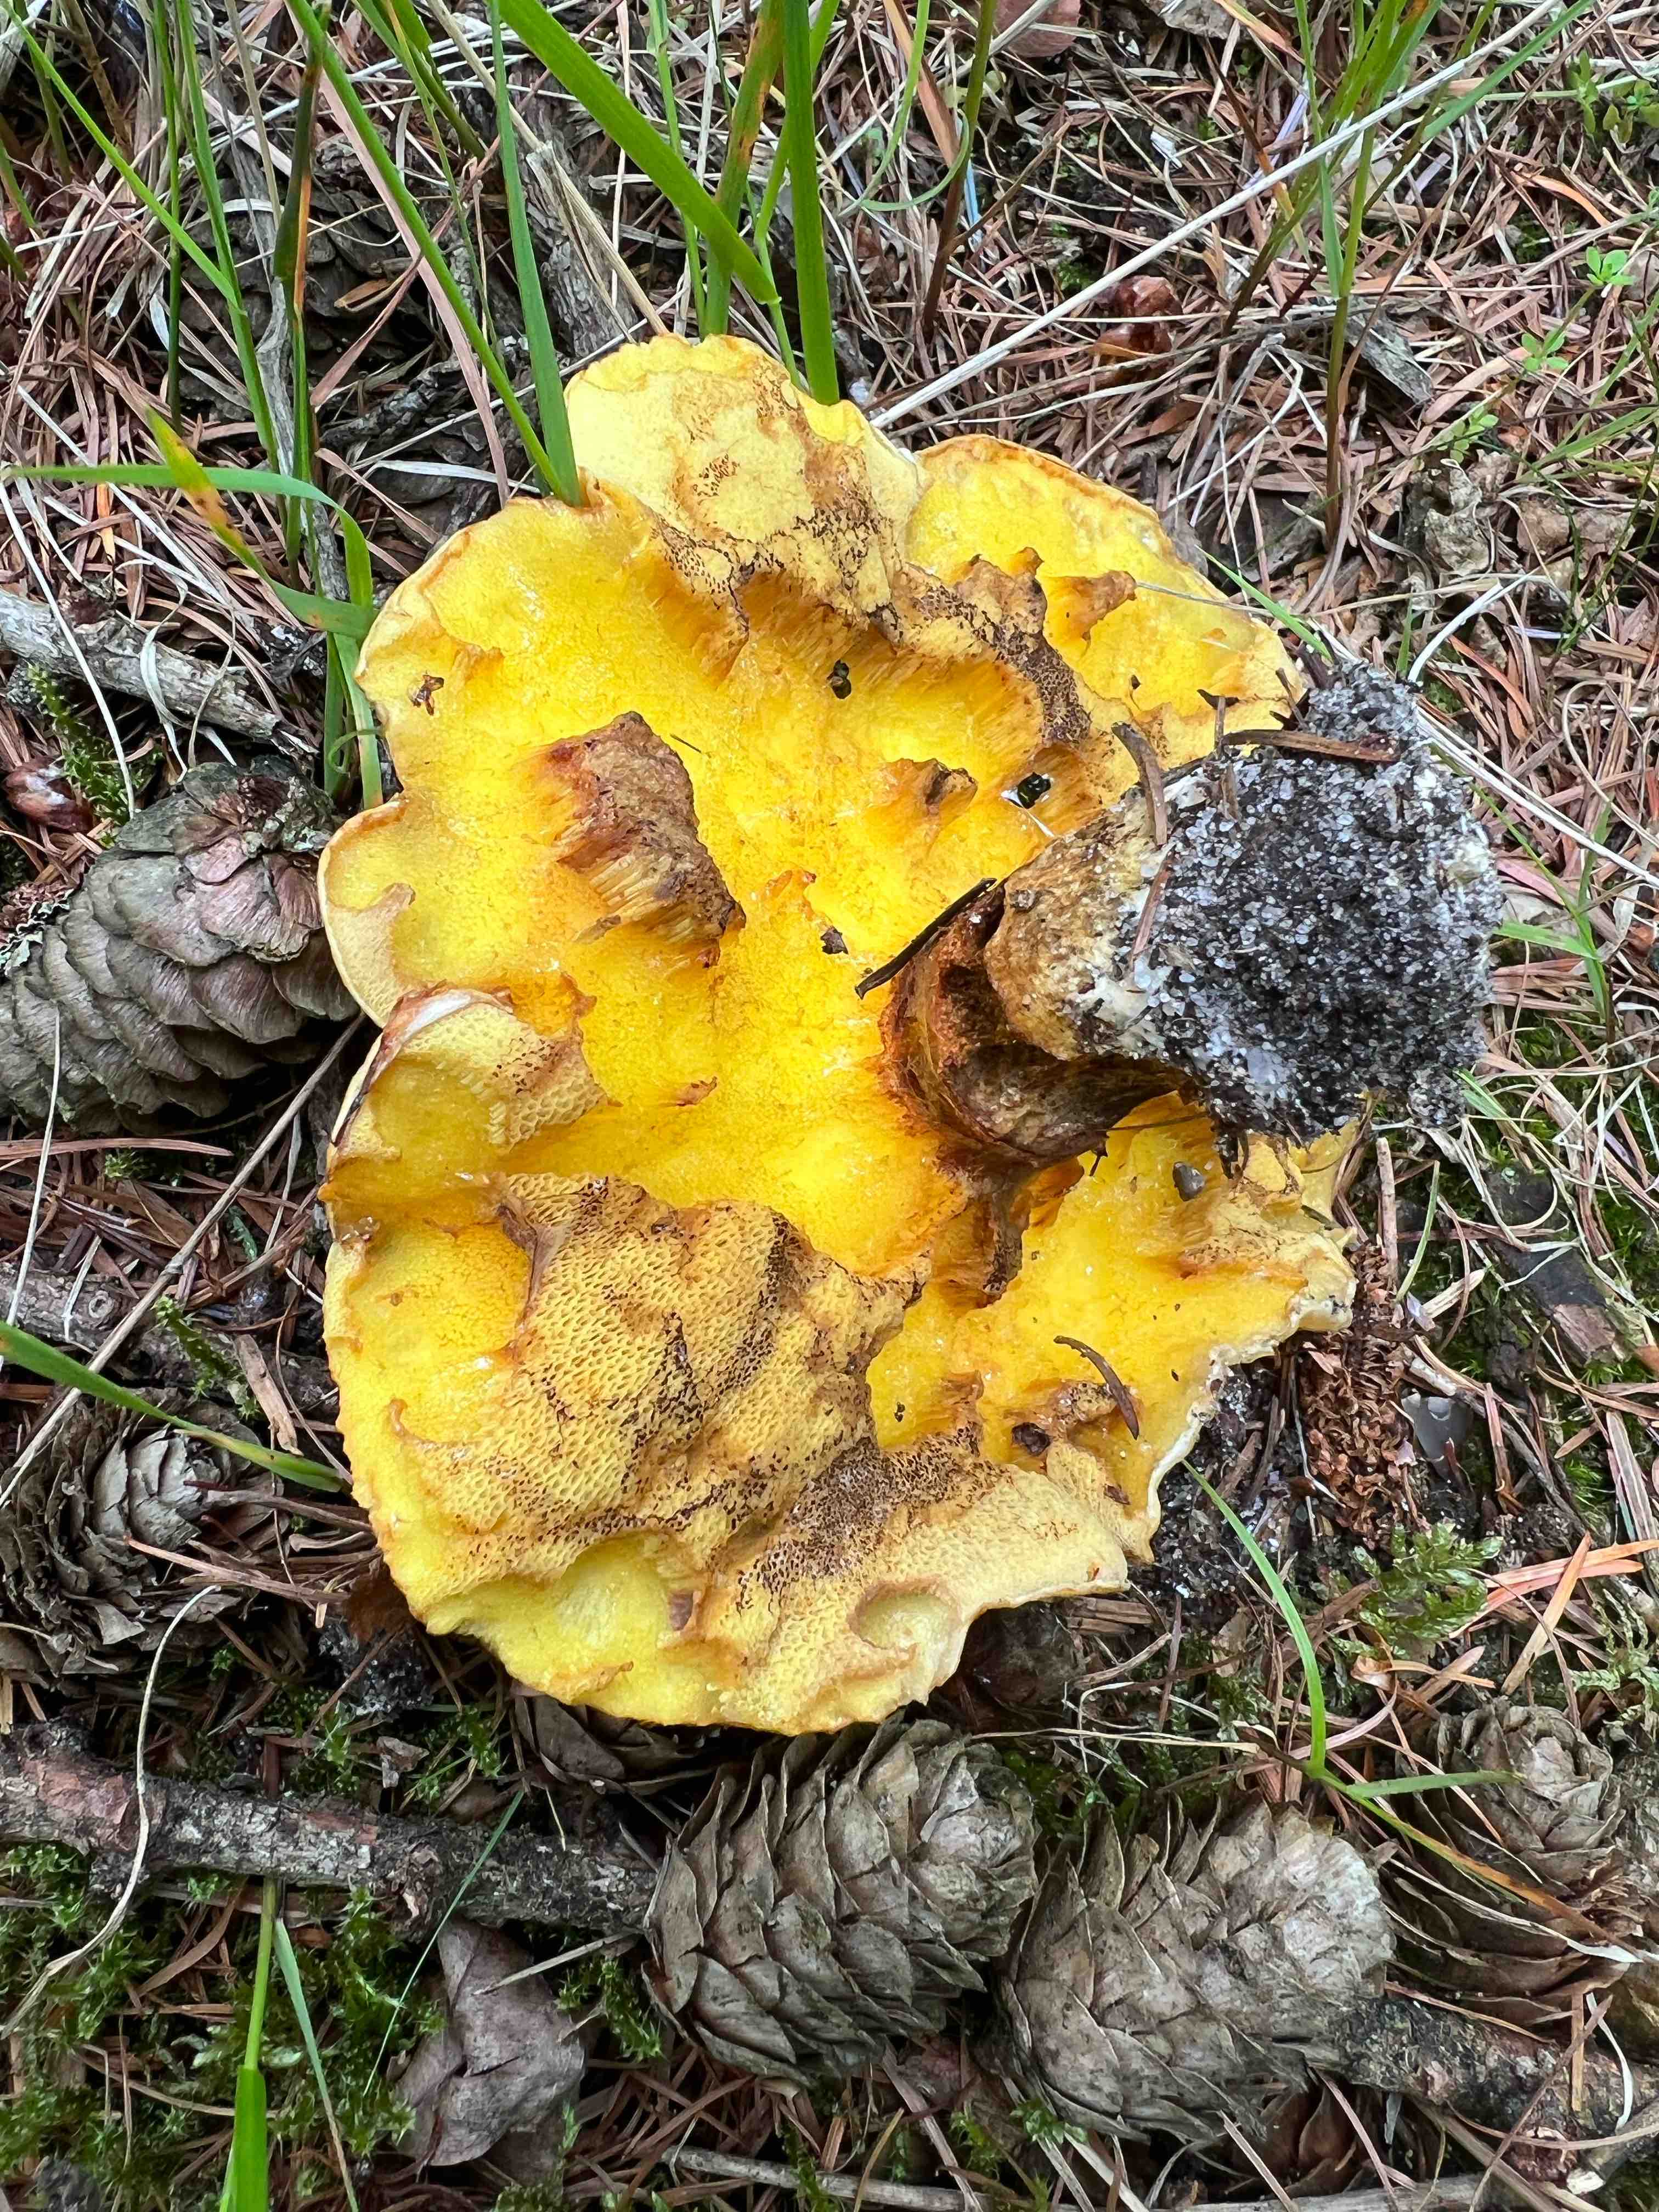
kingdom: Fungi
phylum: Basidiomycota
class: Agaricomycetes
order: Boletales
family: Suillaceae
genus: Suillus
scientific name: Suillus grevillei
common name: lærke-slimrørhat
